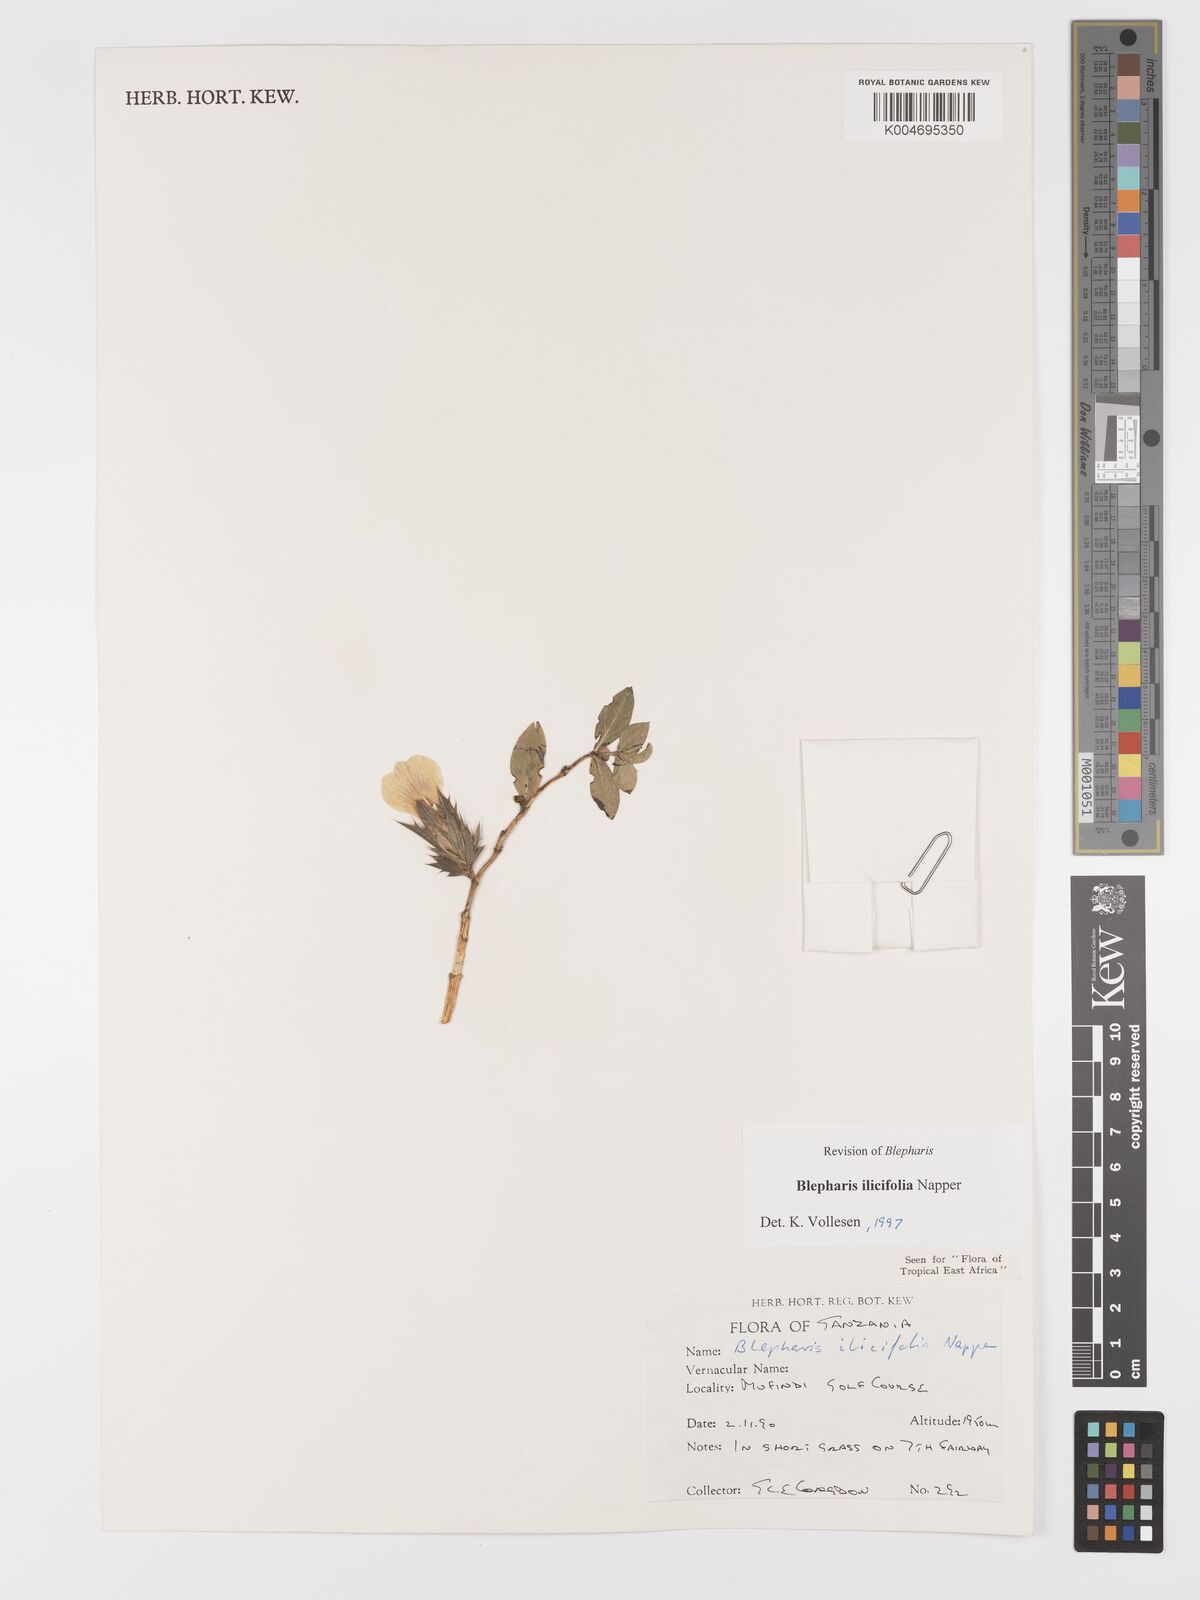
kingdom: Plantae
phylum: Tracheophyta
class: Magnoliopsida
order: Lamiales
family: Acanthaceae
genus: Blepharis
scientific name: Blepharis ilicifolia
